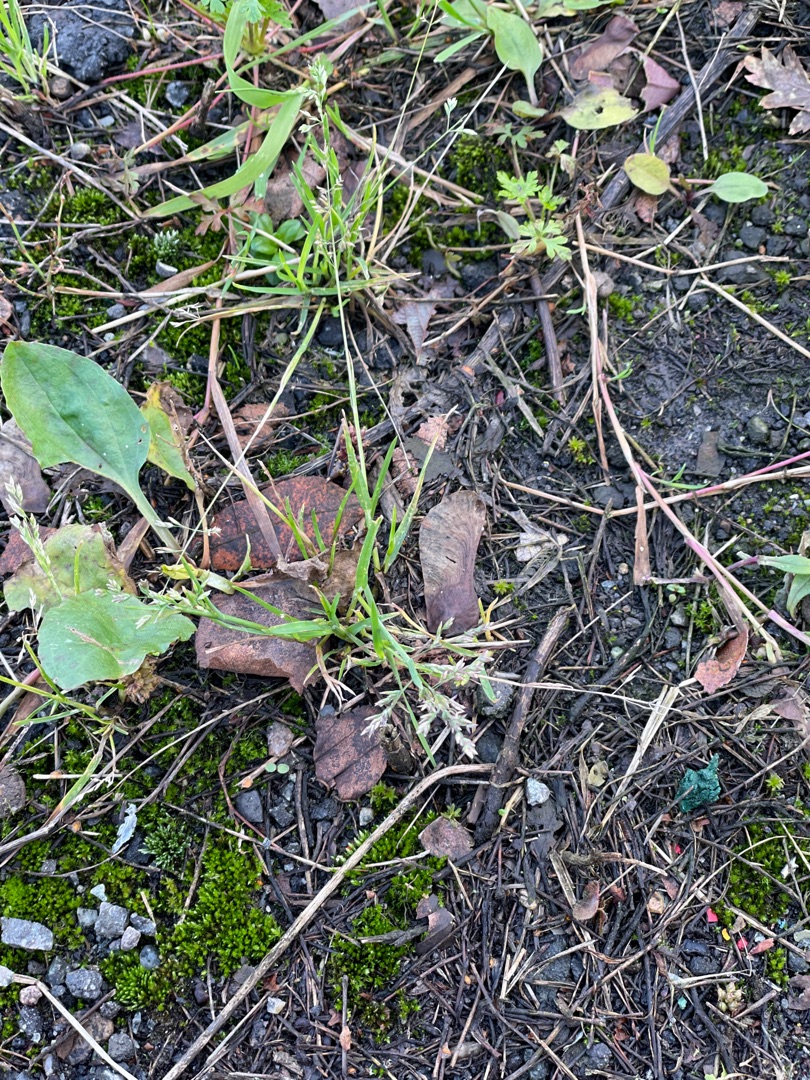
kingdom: Plantae
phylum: Tracheophyta
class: Liliopsida
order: Poales
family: Poaceae
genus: Poa
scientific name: Poa annua
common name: Enårig rapgræs
